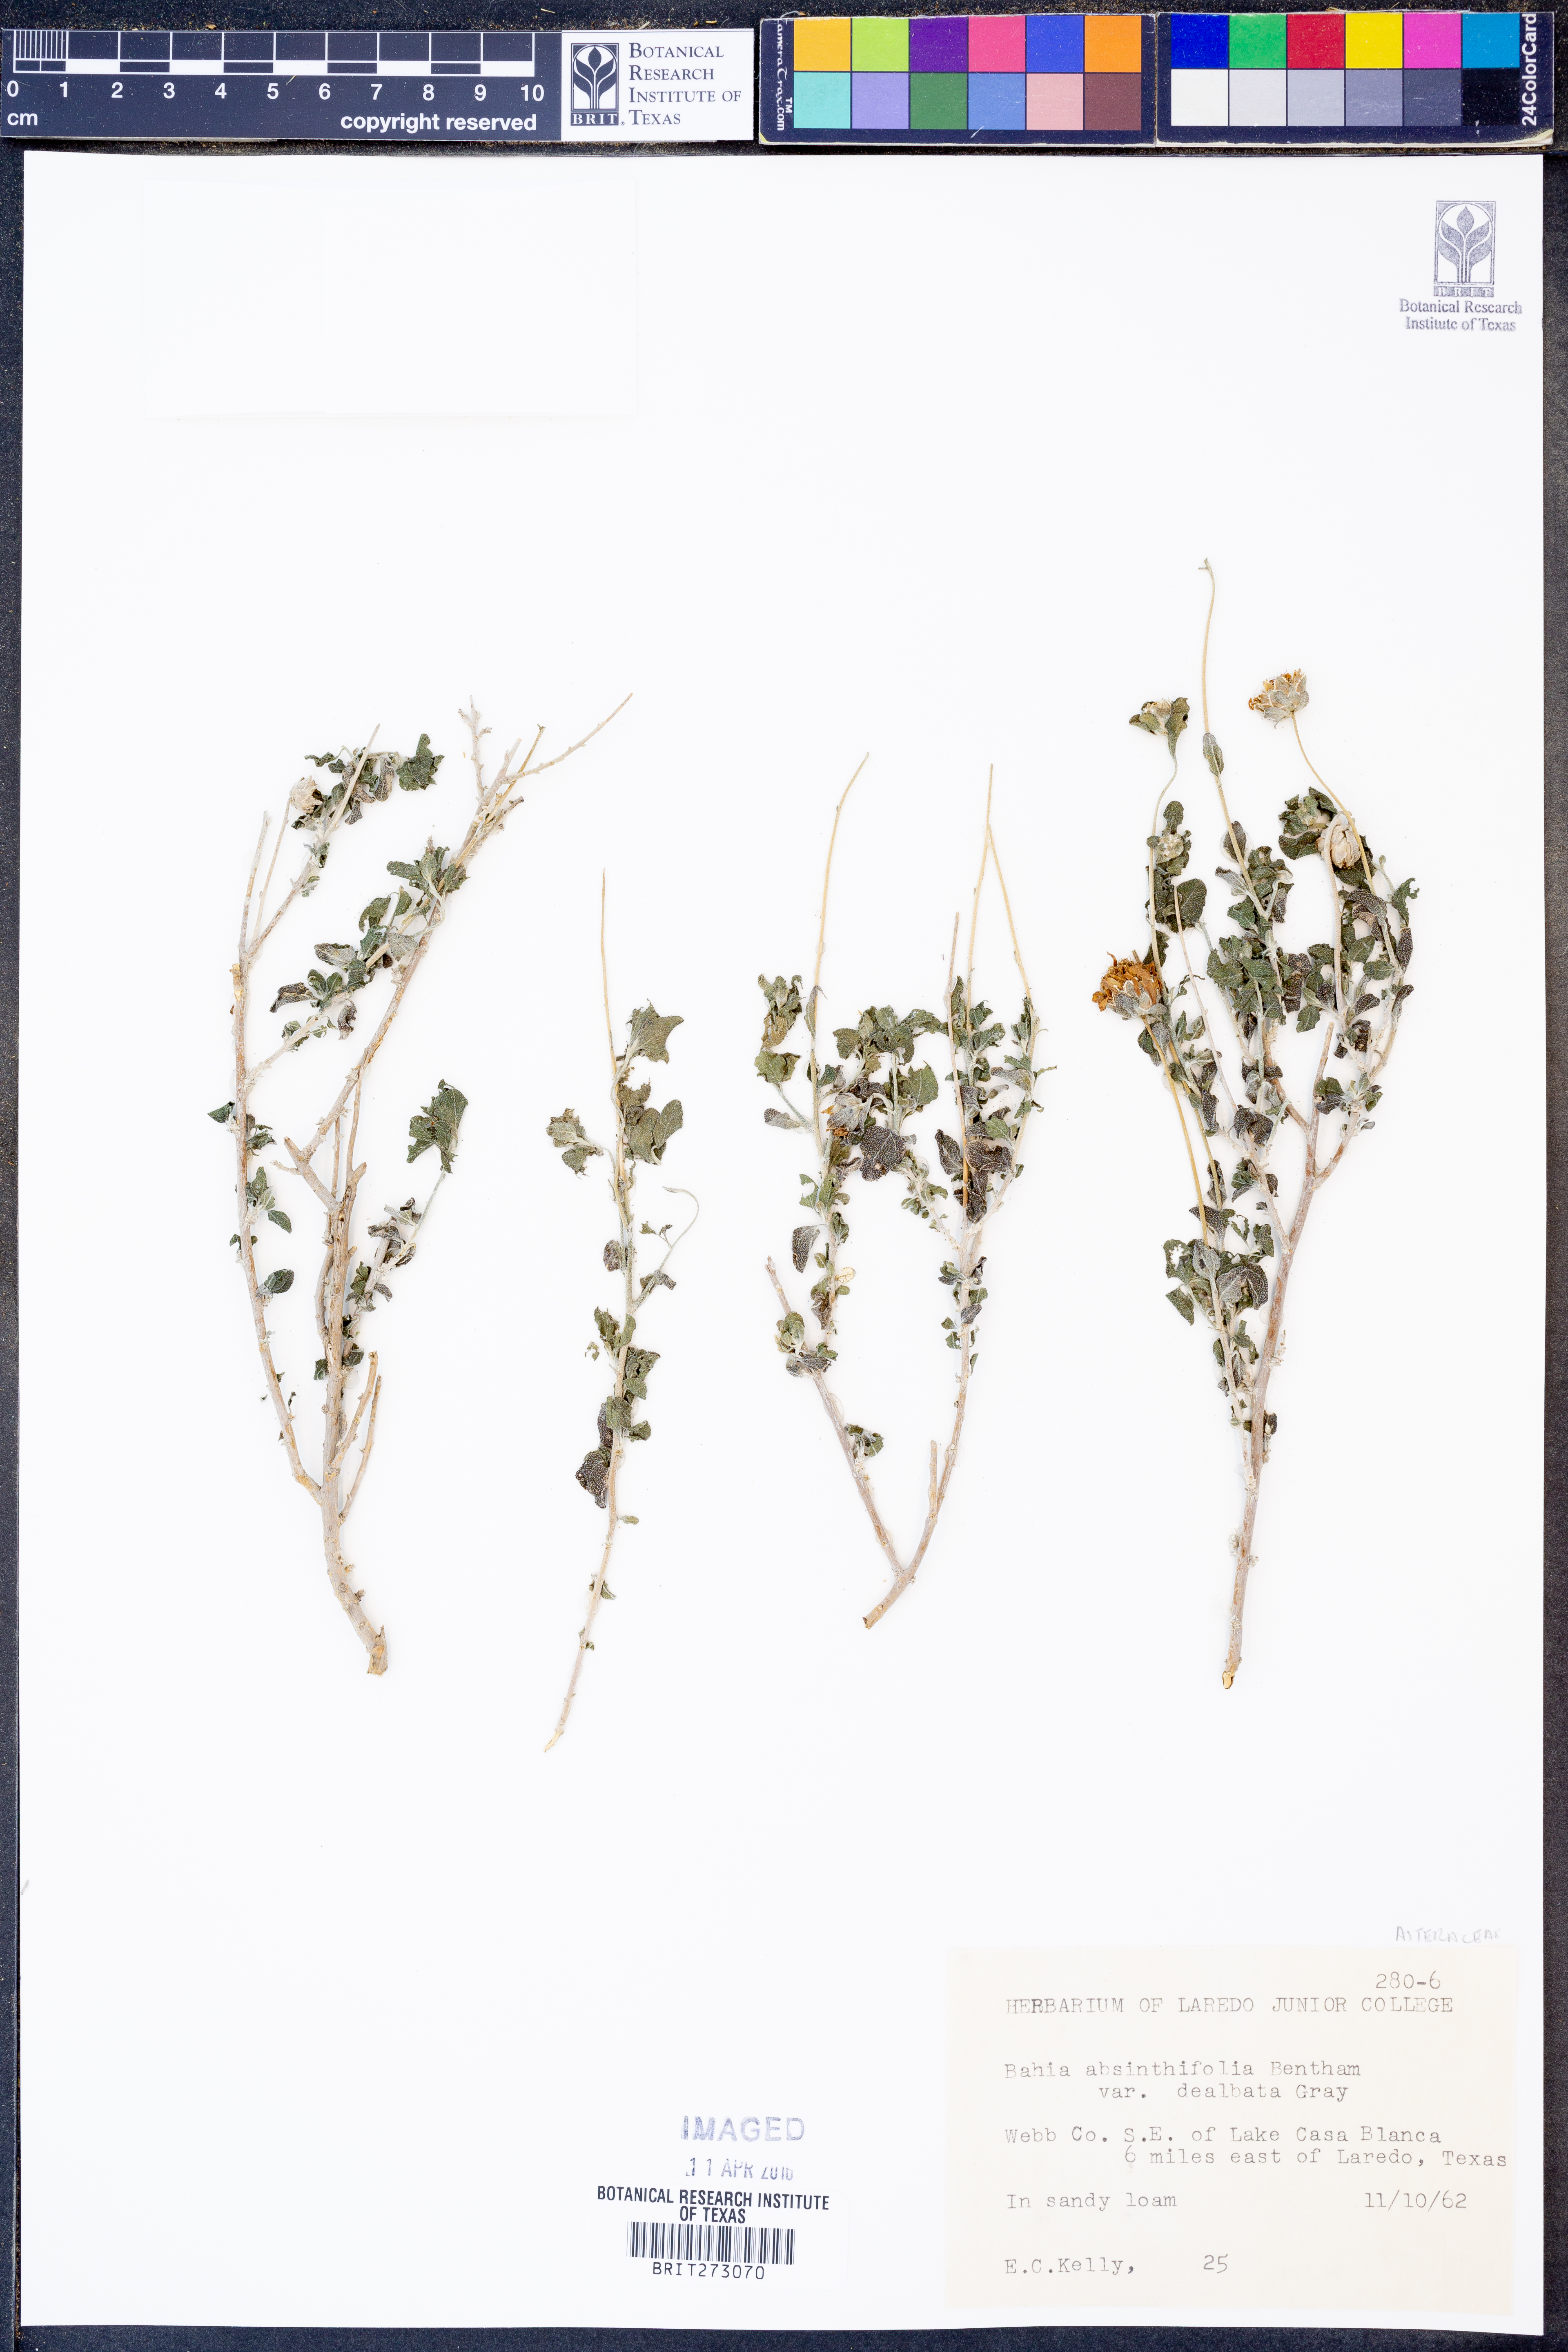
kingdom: Plantae
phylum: Tracheophyta
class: Magnoliopsida
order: Asterales
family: Asteraceae
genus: Picradeniopsis
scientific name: Picradeniopsis absinthifolia
